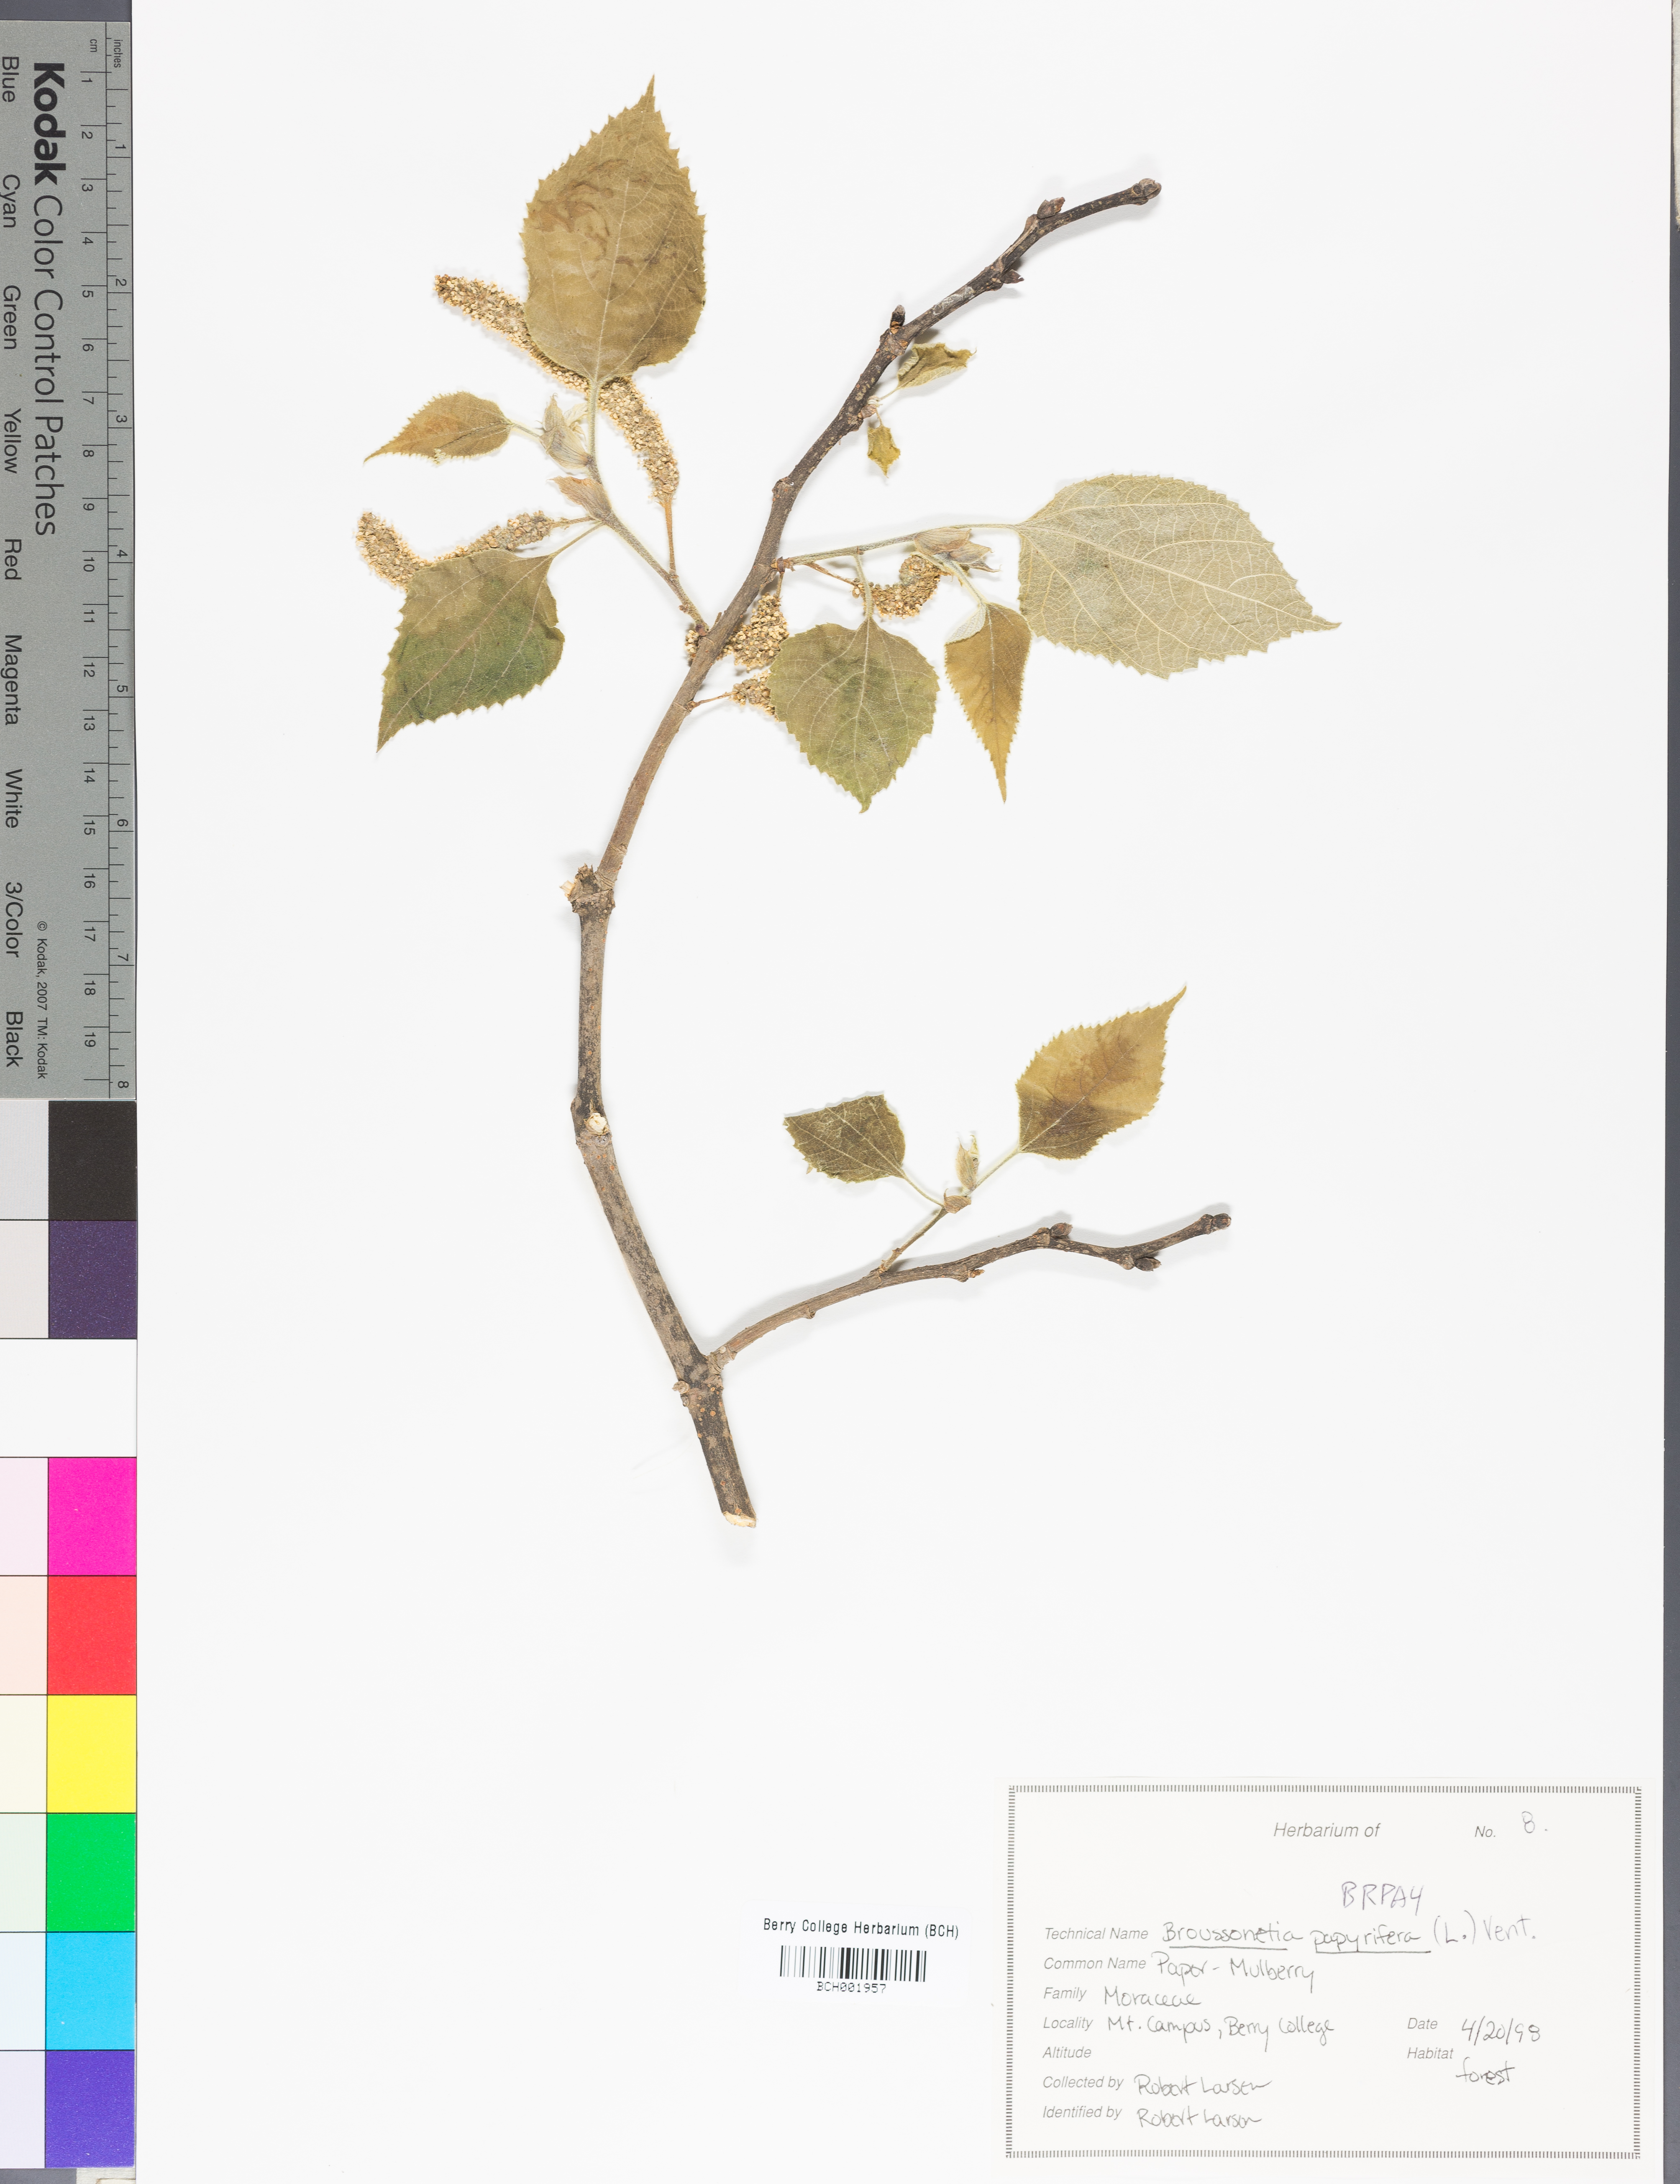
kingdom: Plantae
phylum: Tracheophyta
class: Magnoliopsida
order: Rosales
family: Moraceae
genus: Broussonetia
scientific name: Broussonetia papyrifera
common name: Paper mulberry
